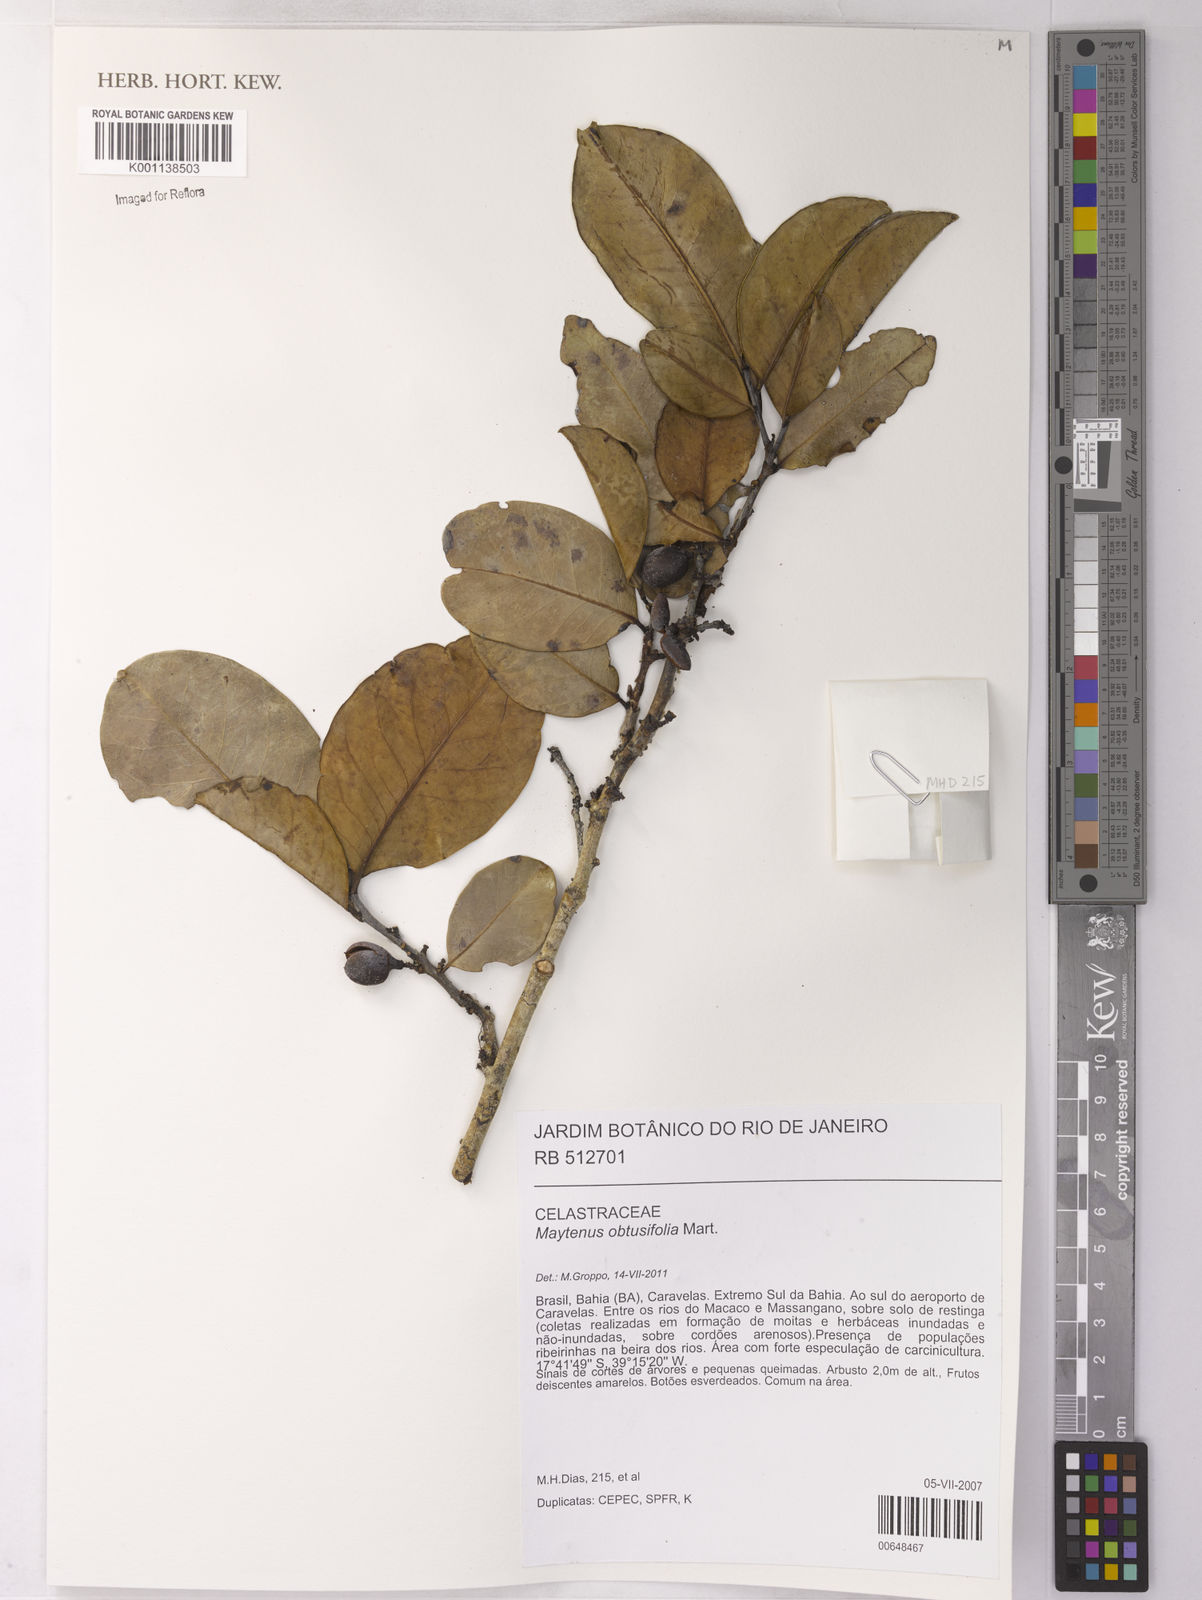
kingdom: Plantae
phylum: Tracheophyta
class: Magnoliopsida
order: Celastrales
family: Celastraceae
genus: Monteverdia
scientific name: Monteverdia obtusifolia
